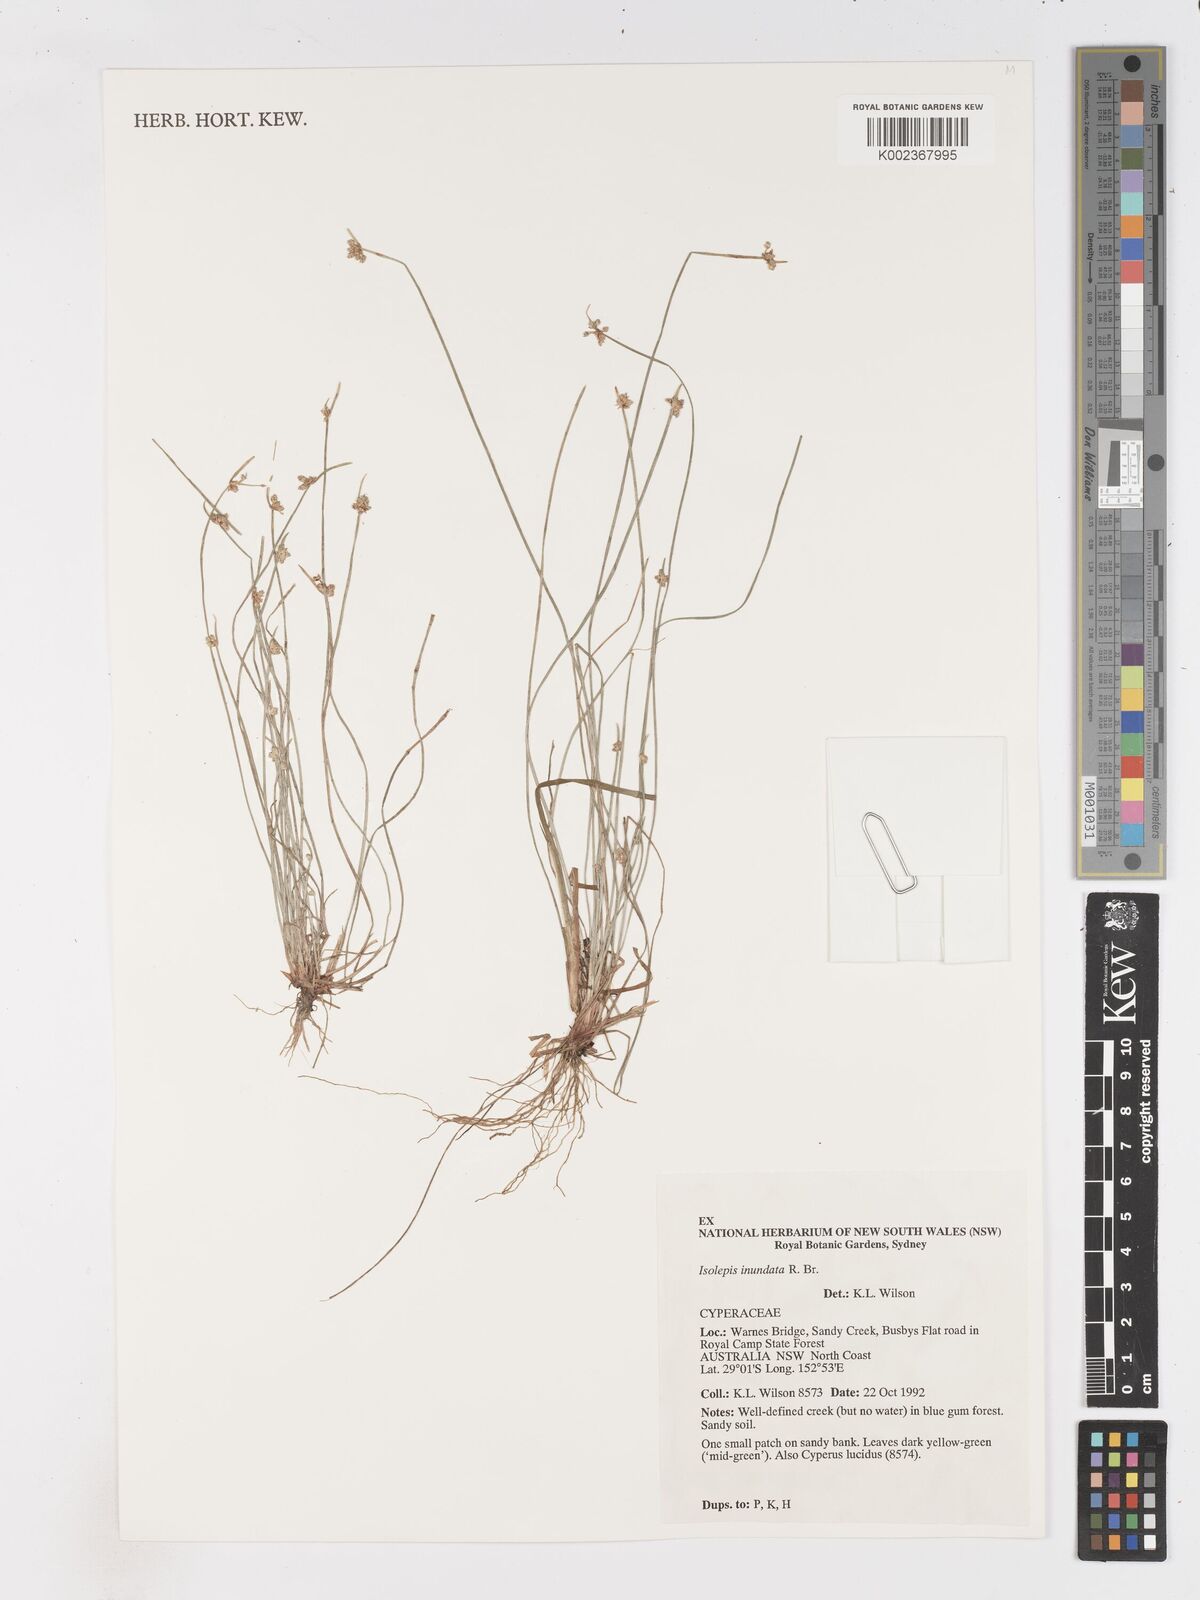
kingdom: Plantae
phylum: Tracheophyta
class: Liliopsida
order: Poales
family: Cyperaceae
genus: Isolepis
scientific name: Isolepis inundata
